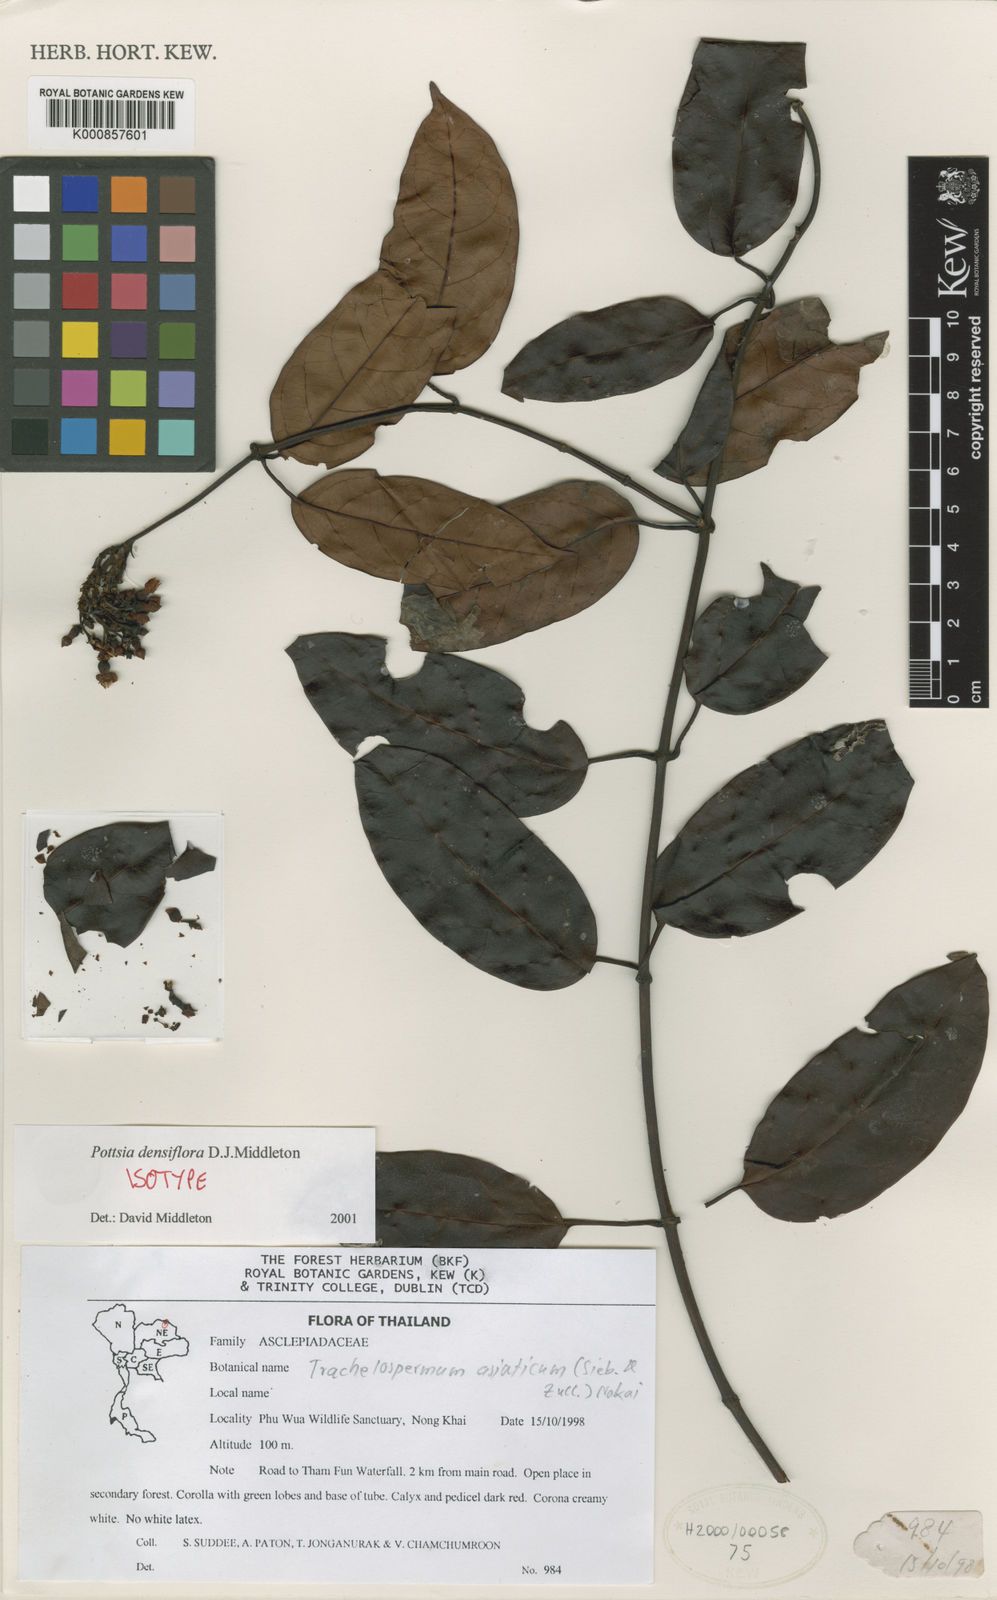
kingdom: Plantae
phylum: Tracheophyta
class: Magnoliopsida
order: Gentianales
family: Apocynaceae
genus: Pottsia
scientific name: Pottsia densiflora
